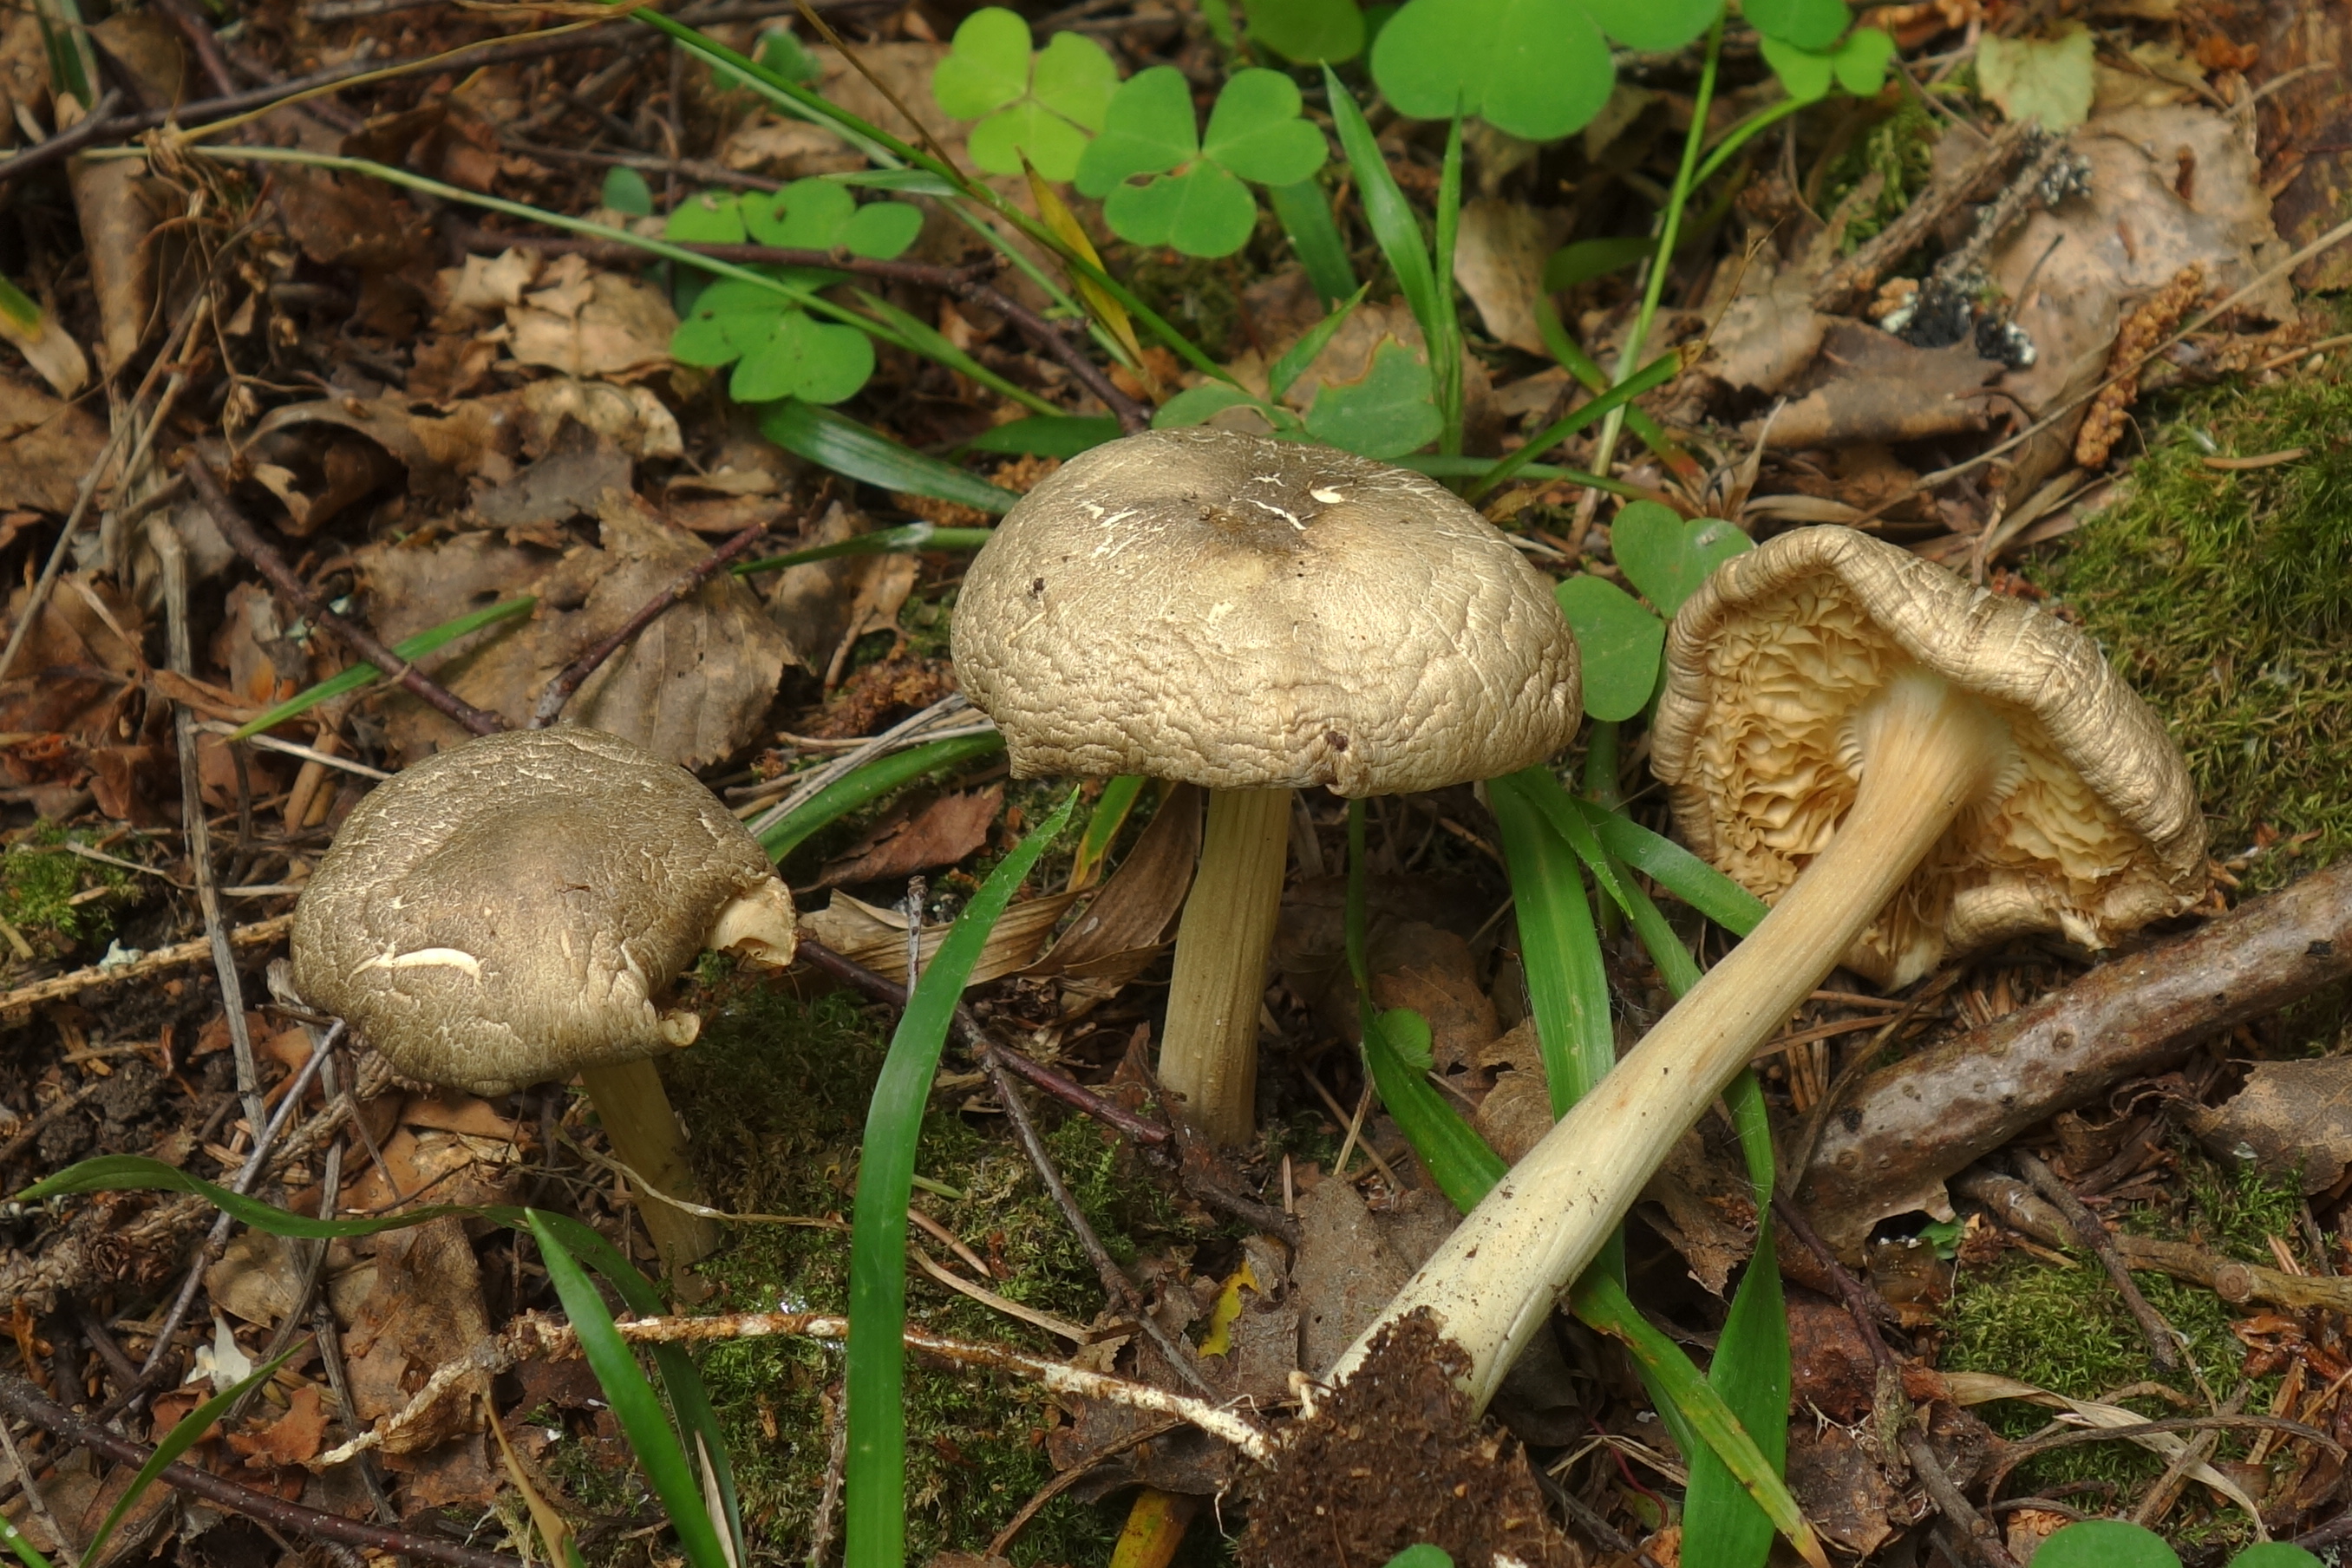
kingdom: Fungi
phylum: Basidiomycota
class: Agaricomycetes
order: Agaricales
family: Tricholomataceae
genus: Megacollybia
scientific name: Megacollybia platyphylla
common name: Whitelaced shank
